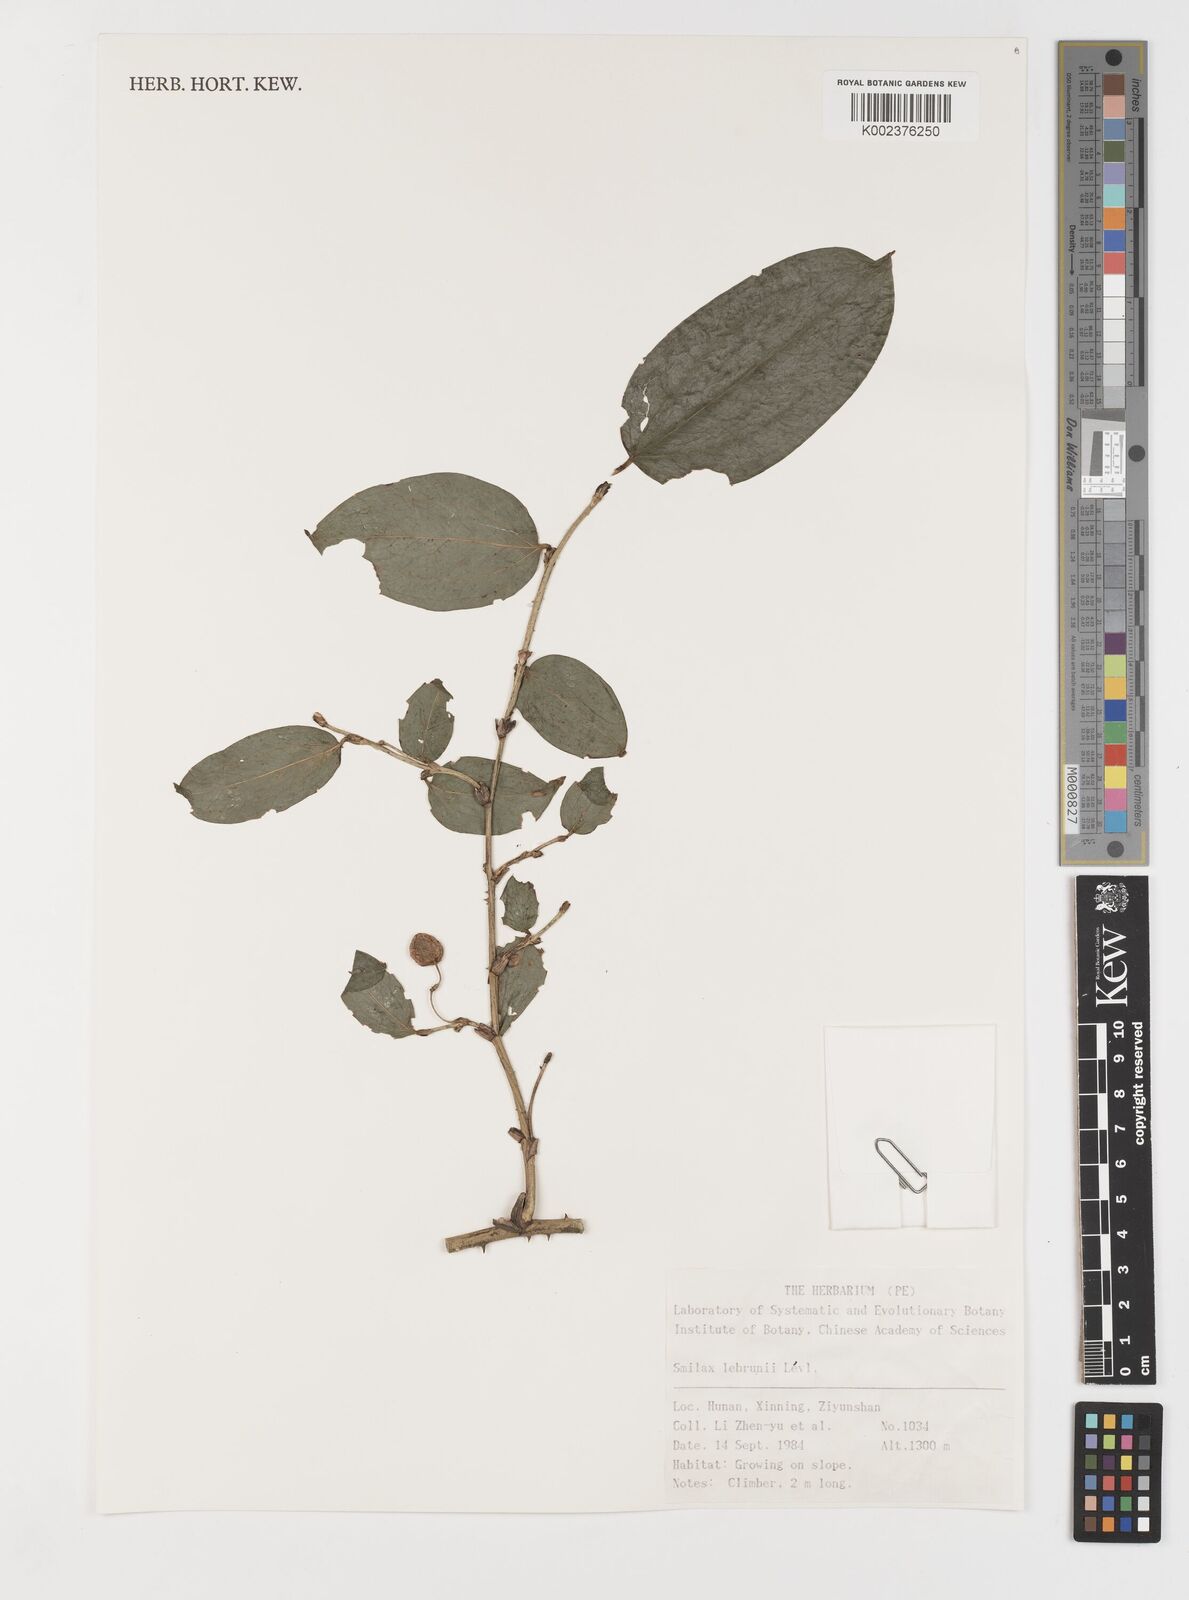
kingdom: Plantae
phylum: Tracheophyta
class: Liliopsida
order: Liliales
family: Smilacaceae
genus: Smilax
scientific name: Smilax lebrunii
